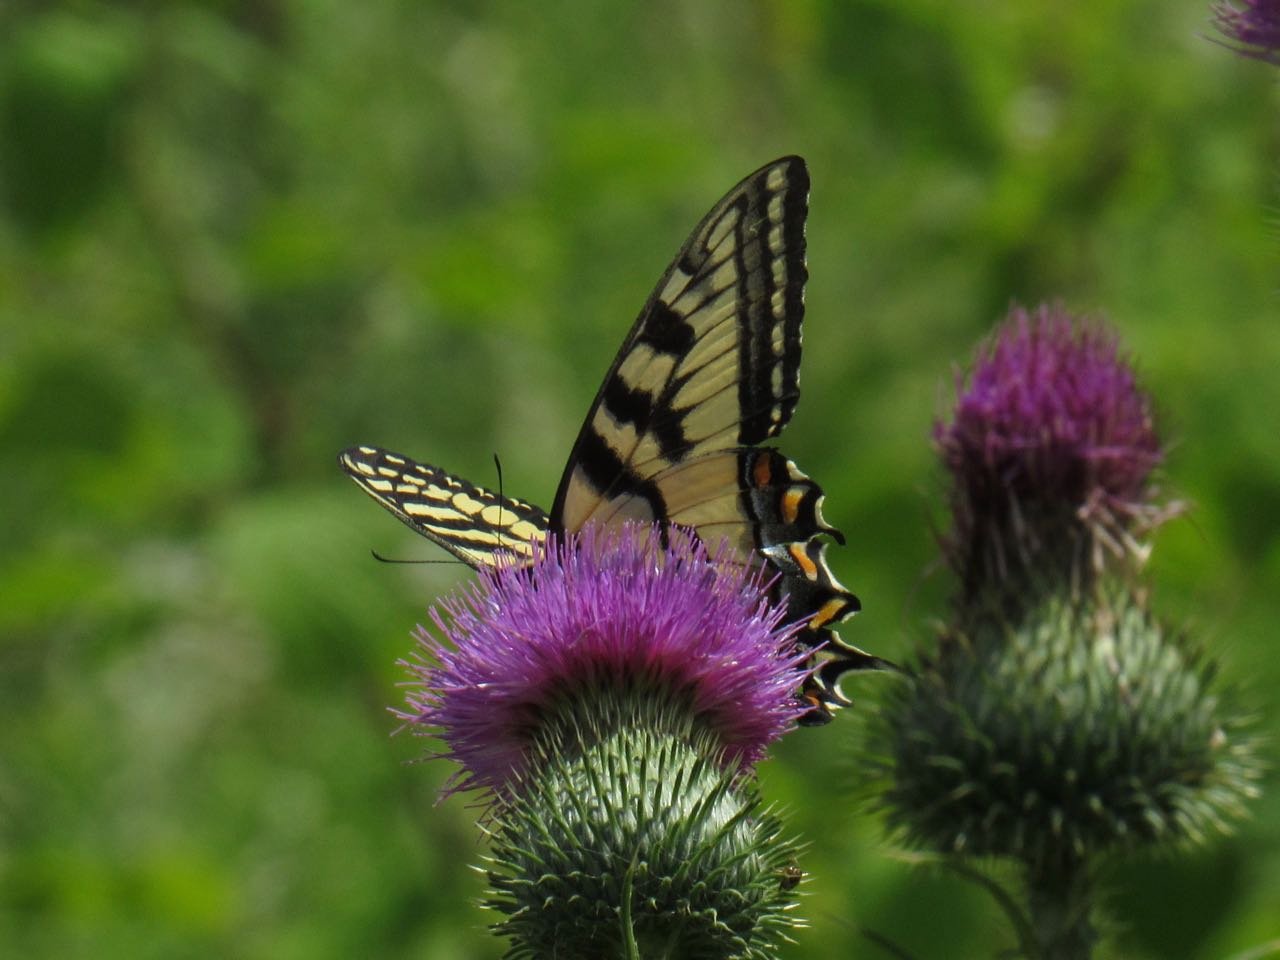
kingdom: Animalia
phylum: Arthropoda
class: Insecta
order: Lepidoptera
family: Papilionidae
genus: Pterourus
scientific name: Pterourus
